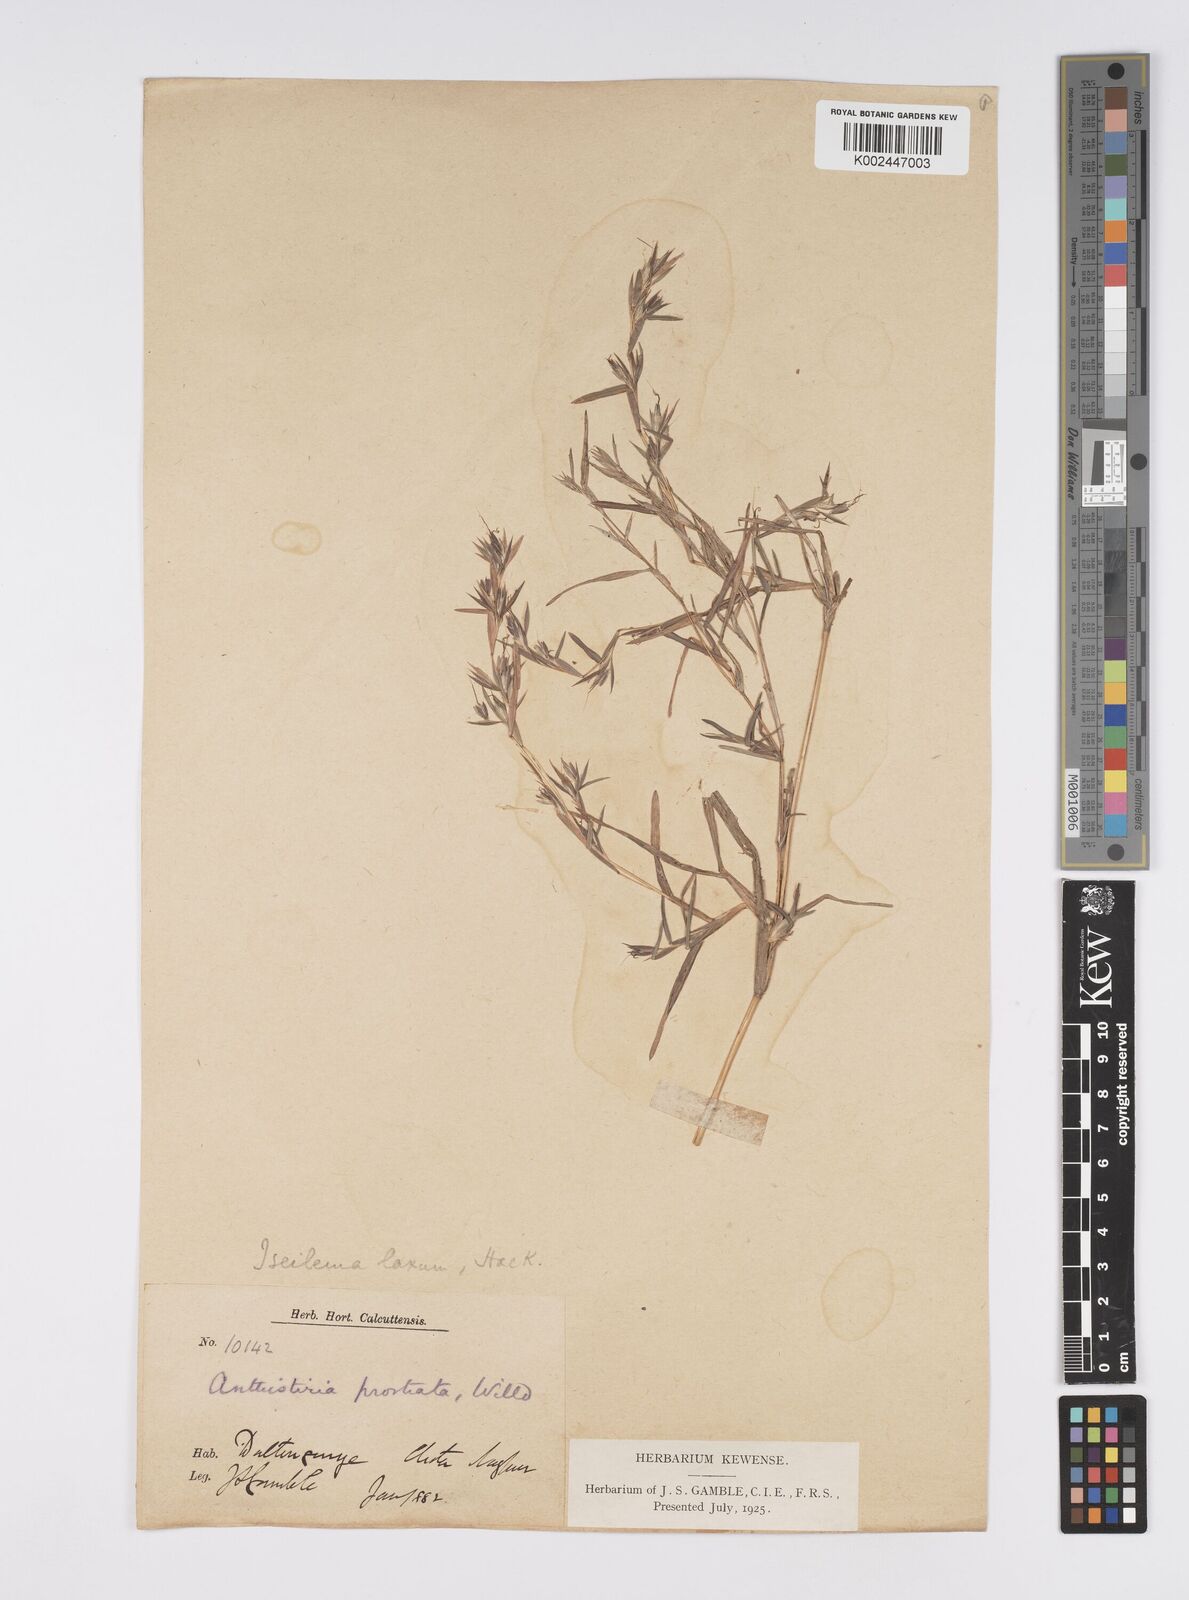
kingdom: Plantae
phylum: Tracheophyta
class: Liliopsida
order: Poales
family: Poaceae
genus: Iseilema
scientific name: Iseilema prostratum
